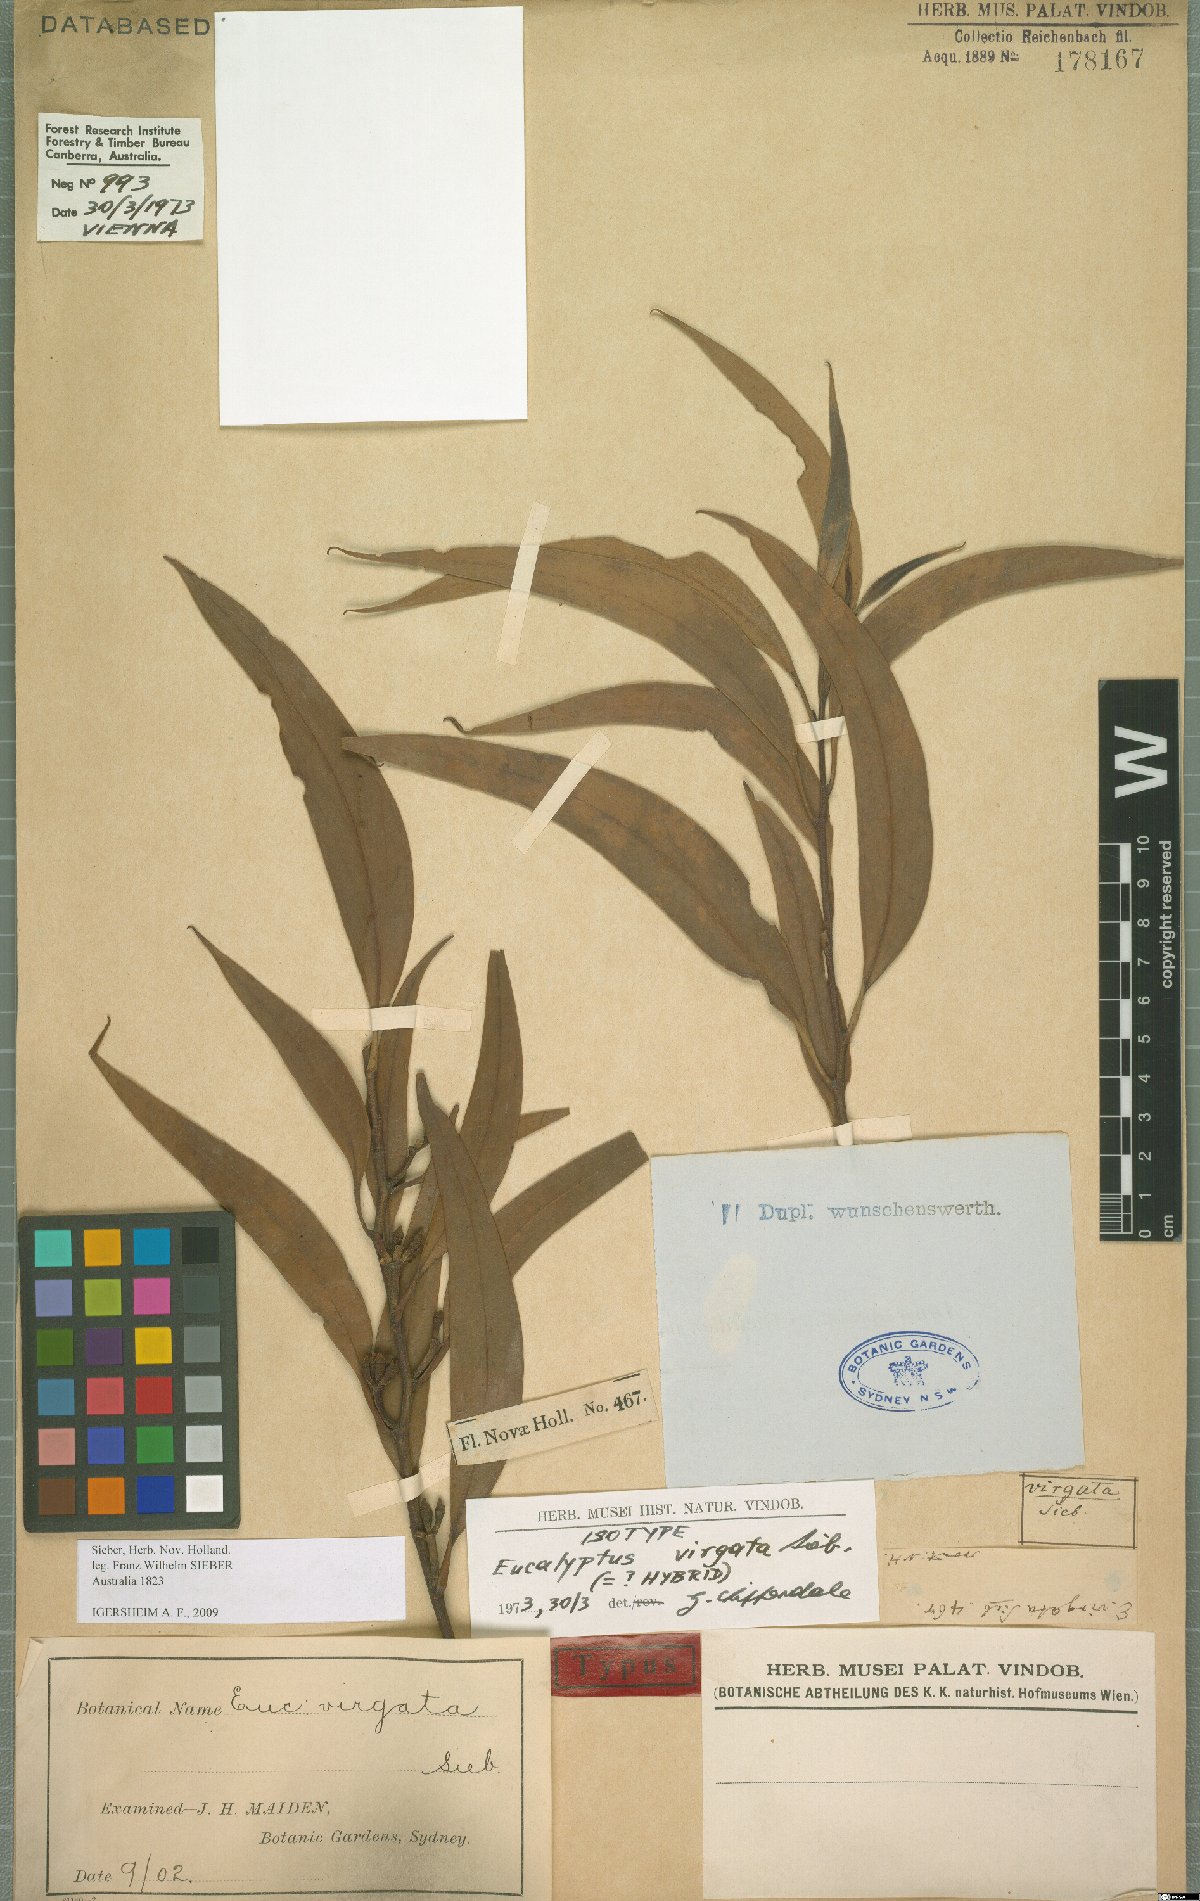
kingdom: Plantae
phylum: Tracheophyta
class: Magnoliopsida
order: Myrtales
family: Myrtaceae
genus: Eucalyptus
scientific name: Eucalyptus virgata
